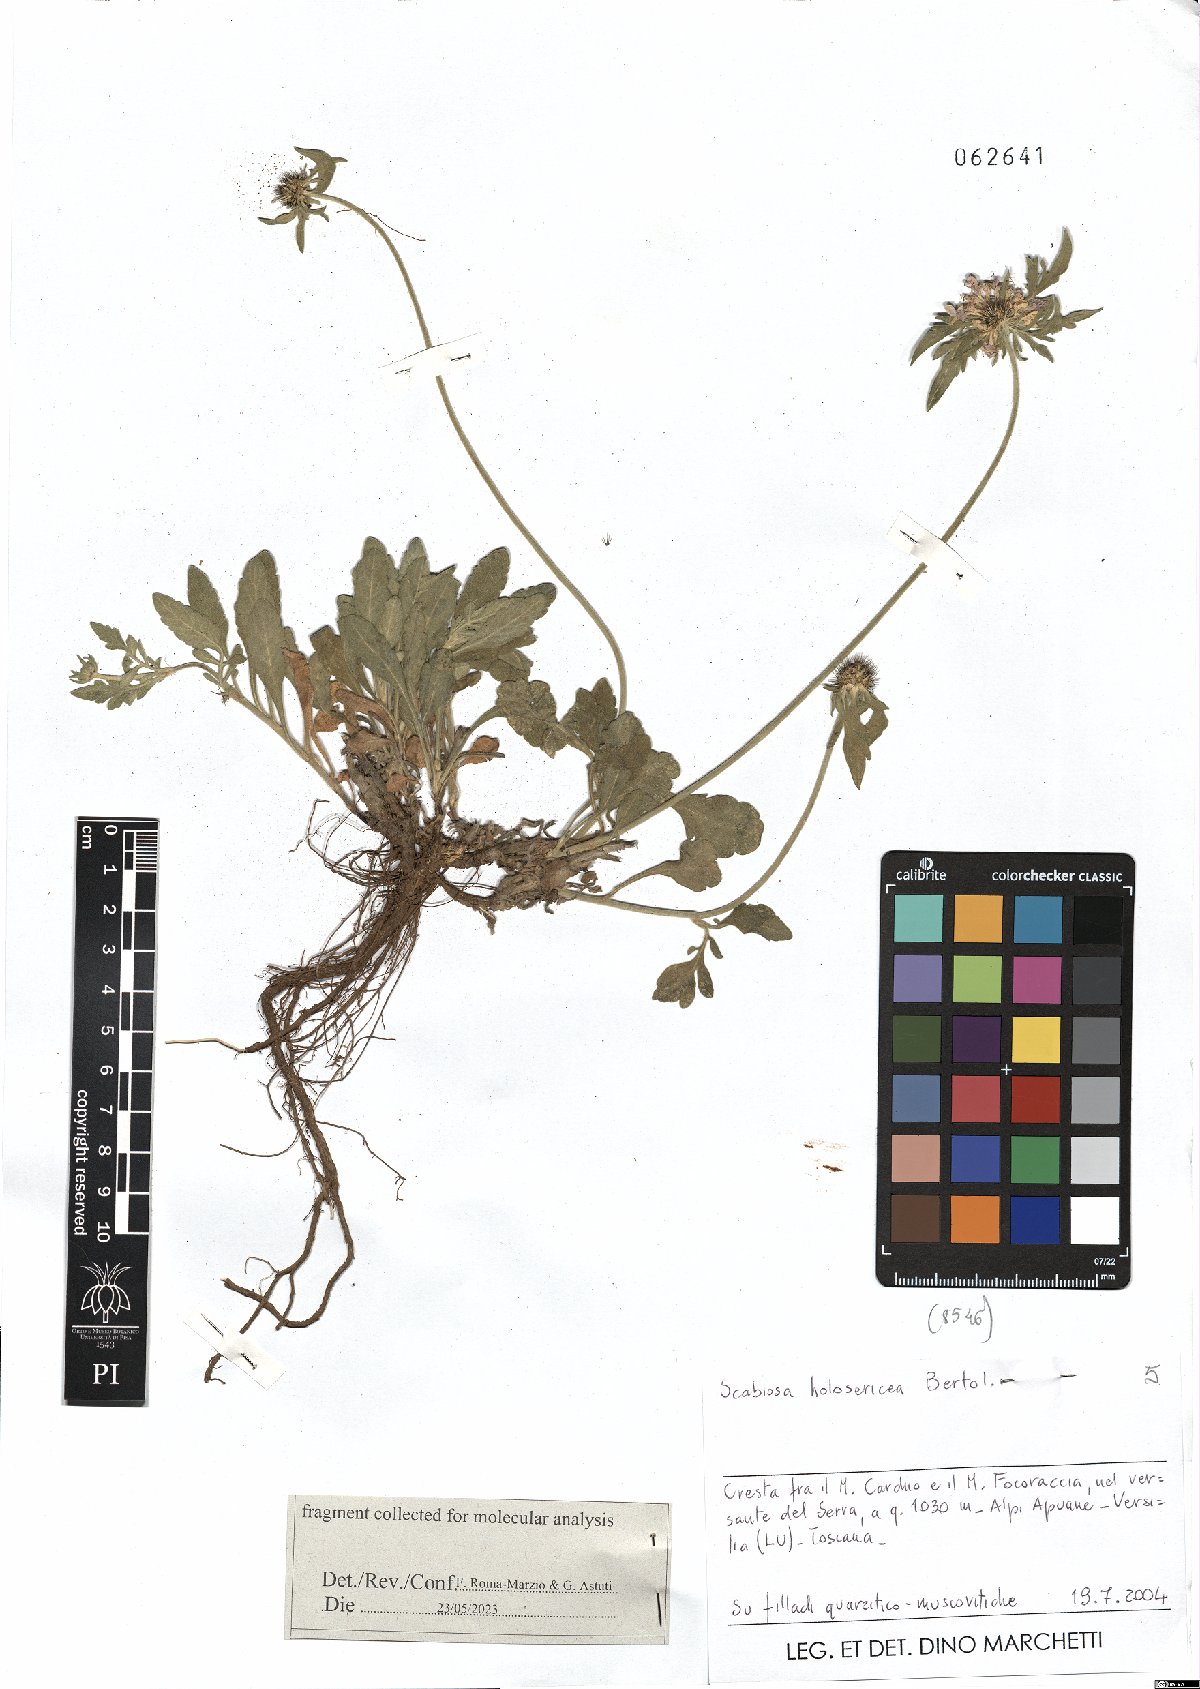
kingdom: Plantae
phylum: Tracheophyta
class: Magnoliopsida
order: Dipsacales
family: Caprifoliaceae
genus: Scabiosa
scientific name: Scabiosa holosericea
